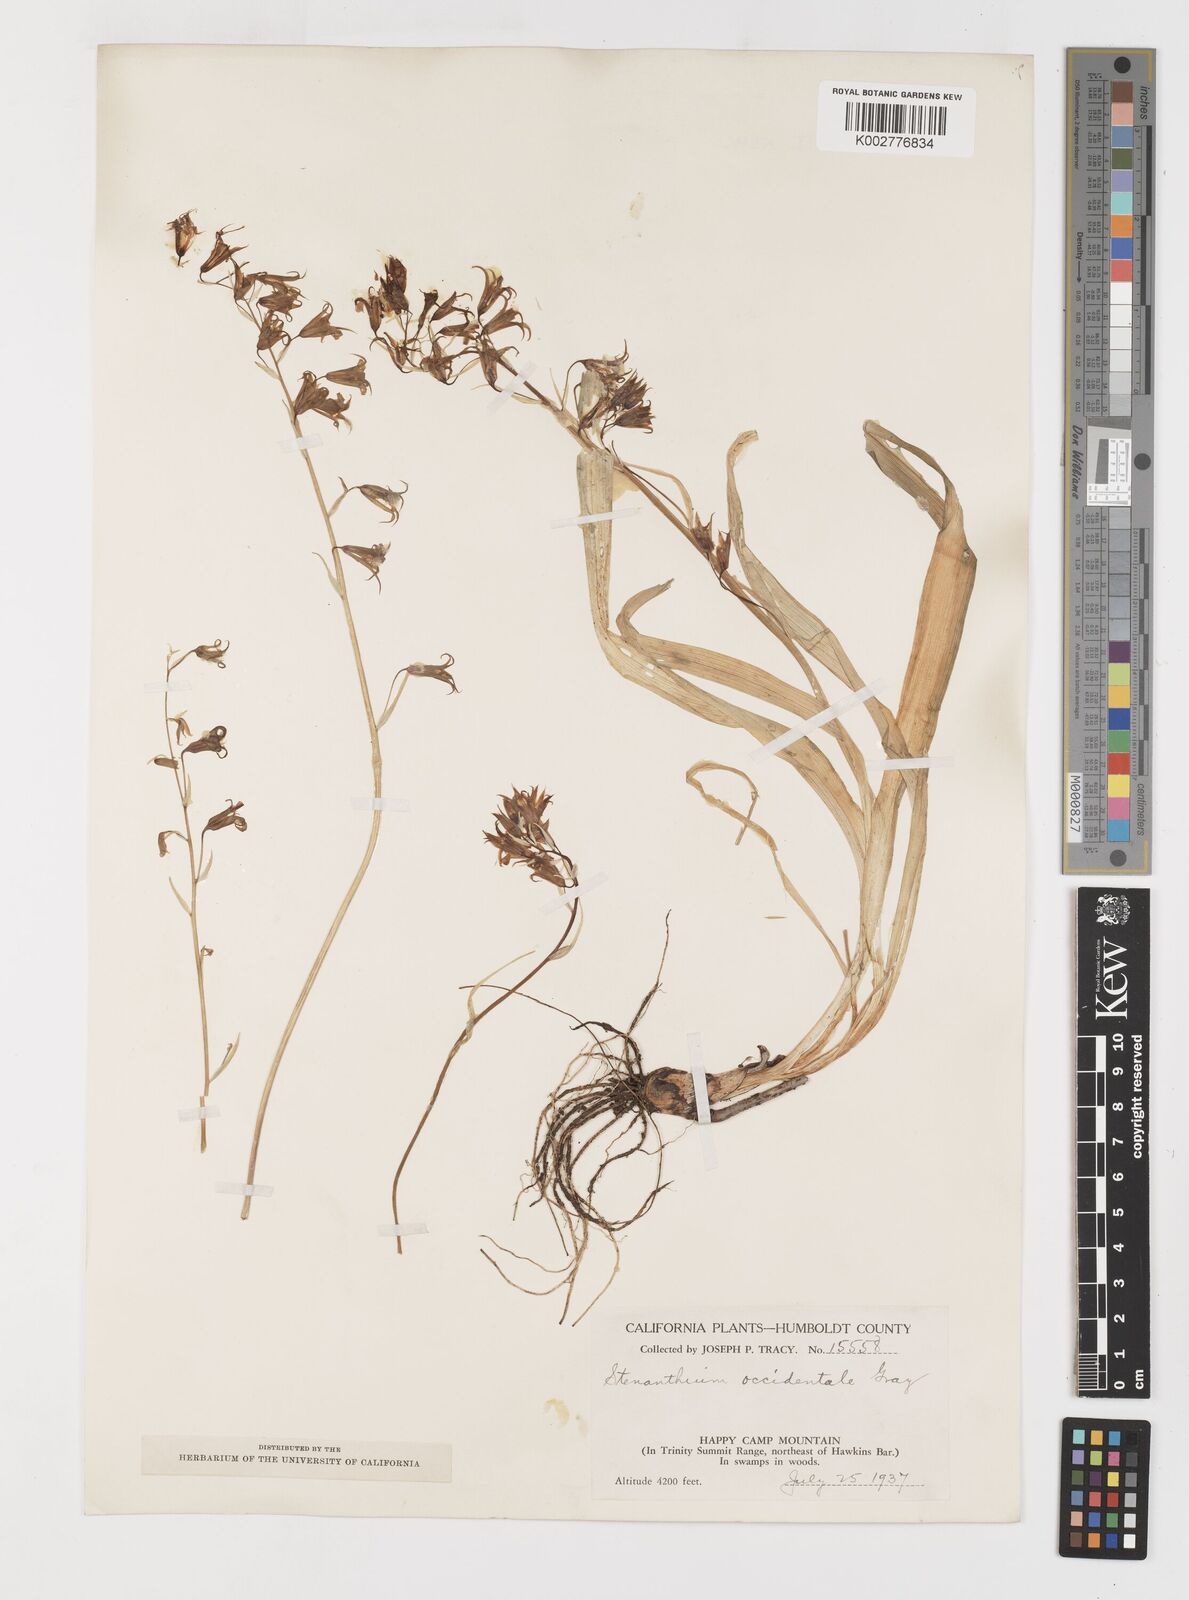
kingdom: Plantae
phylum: Tracheophyta
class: Liliopsida
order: Liliales
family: Melanthiaceae
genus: Anticlea
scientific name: Anticlea occidentalis
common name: Bronze-bells
